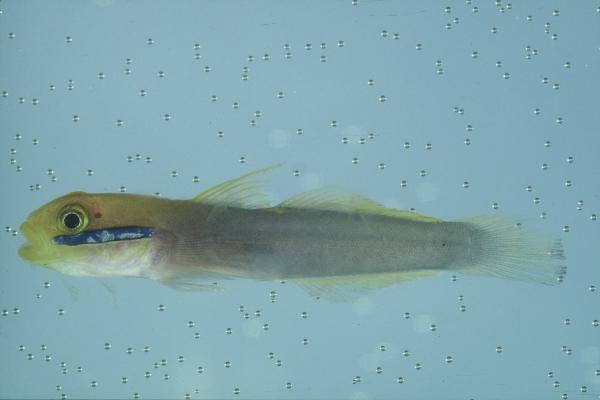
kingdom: Animalia
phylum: Chordata
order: Perciformes
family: Gobiidae
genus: Valenciennea
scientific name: Valenciennea strigata
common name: Blueband goby
